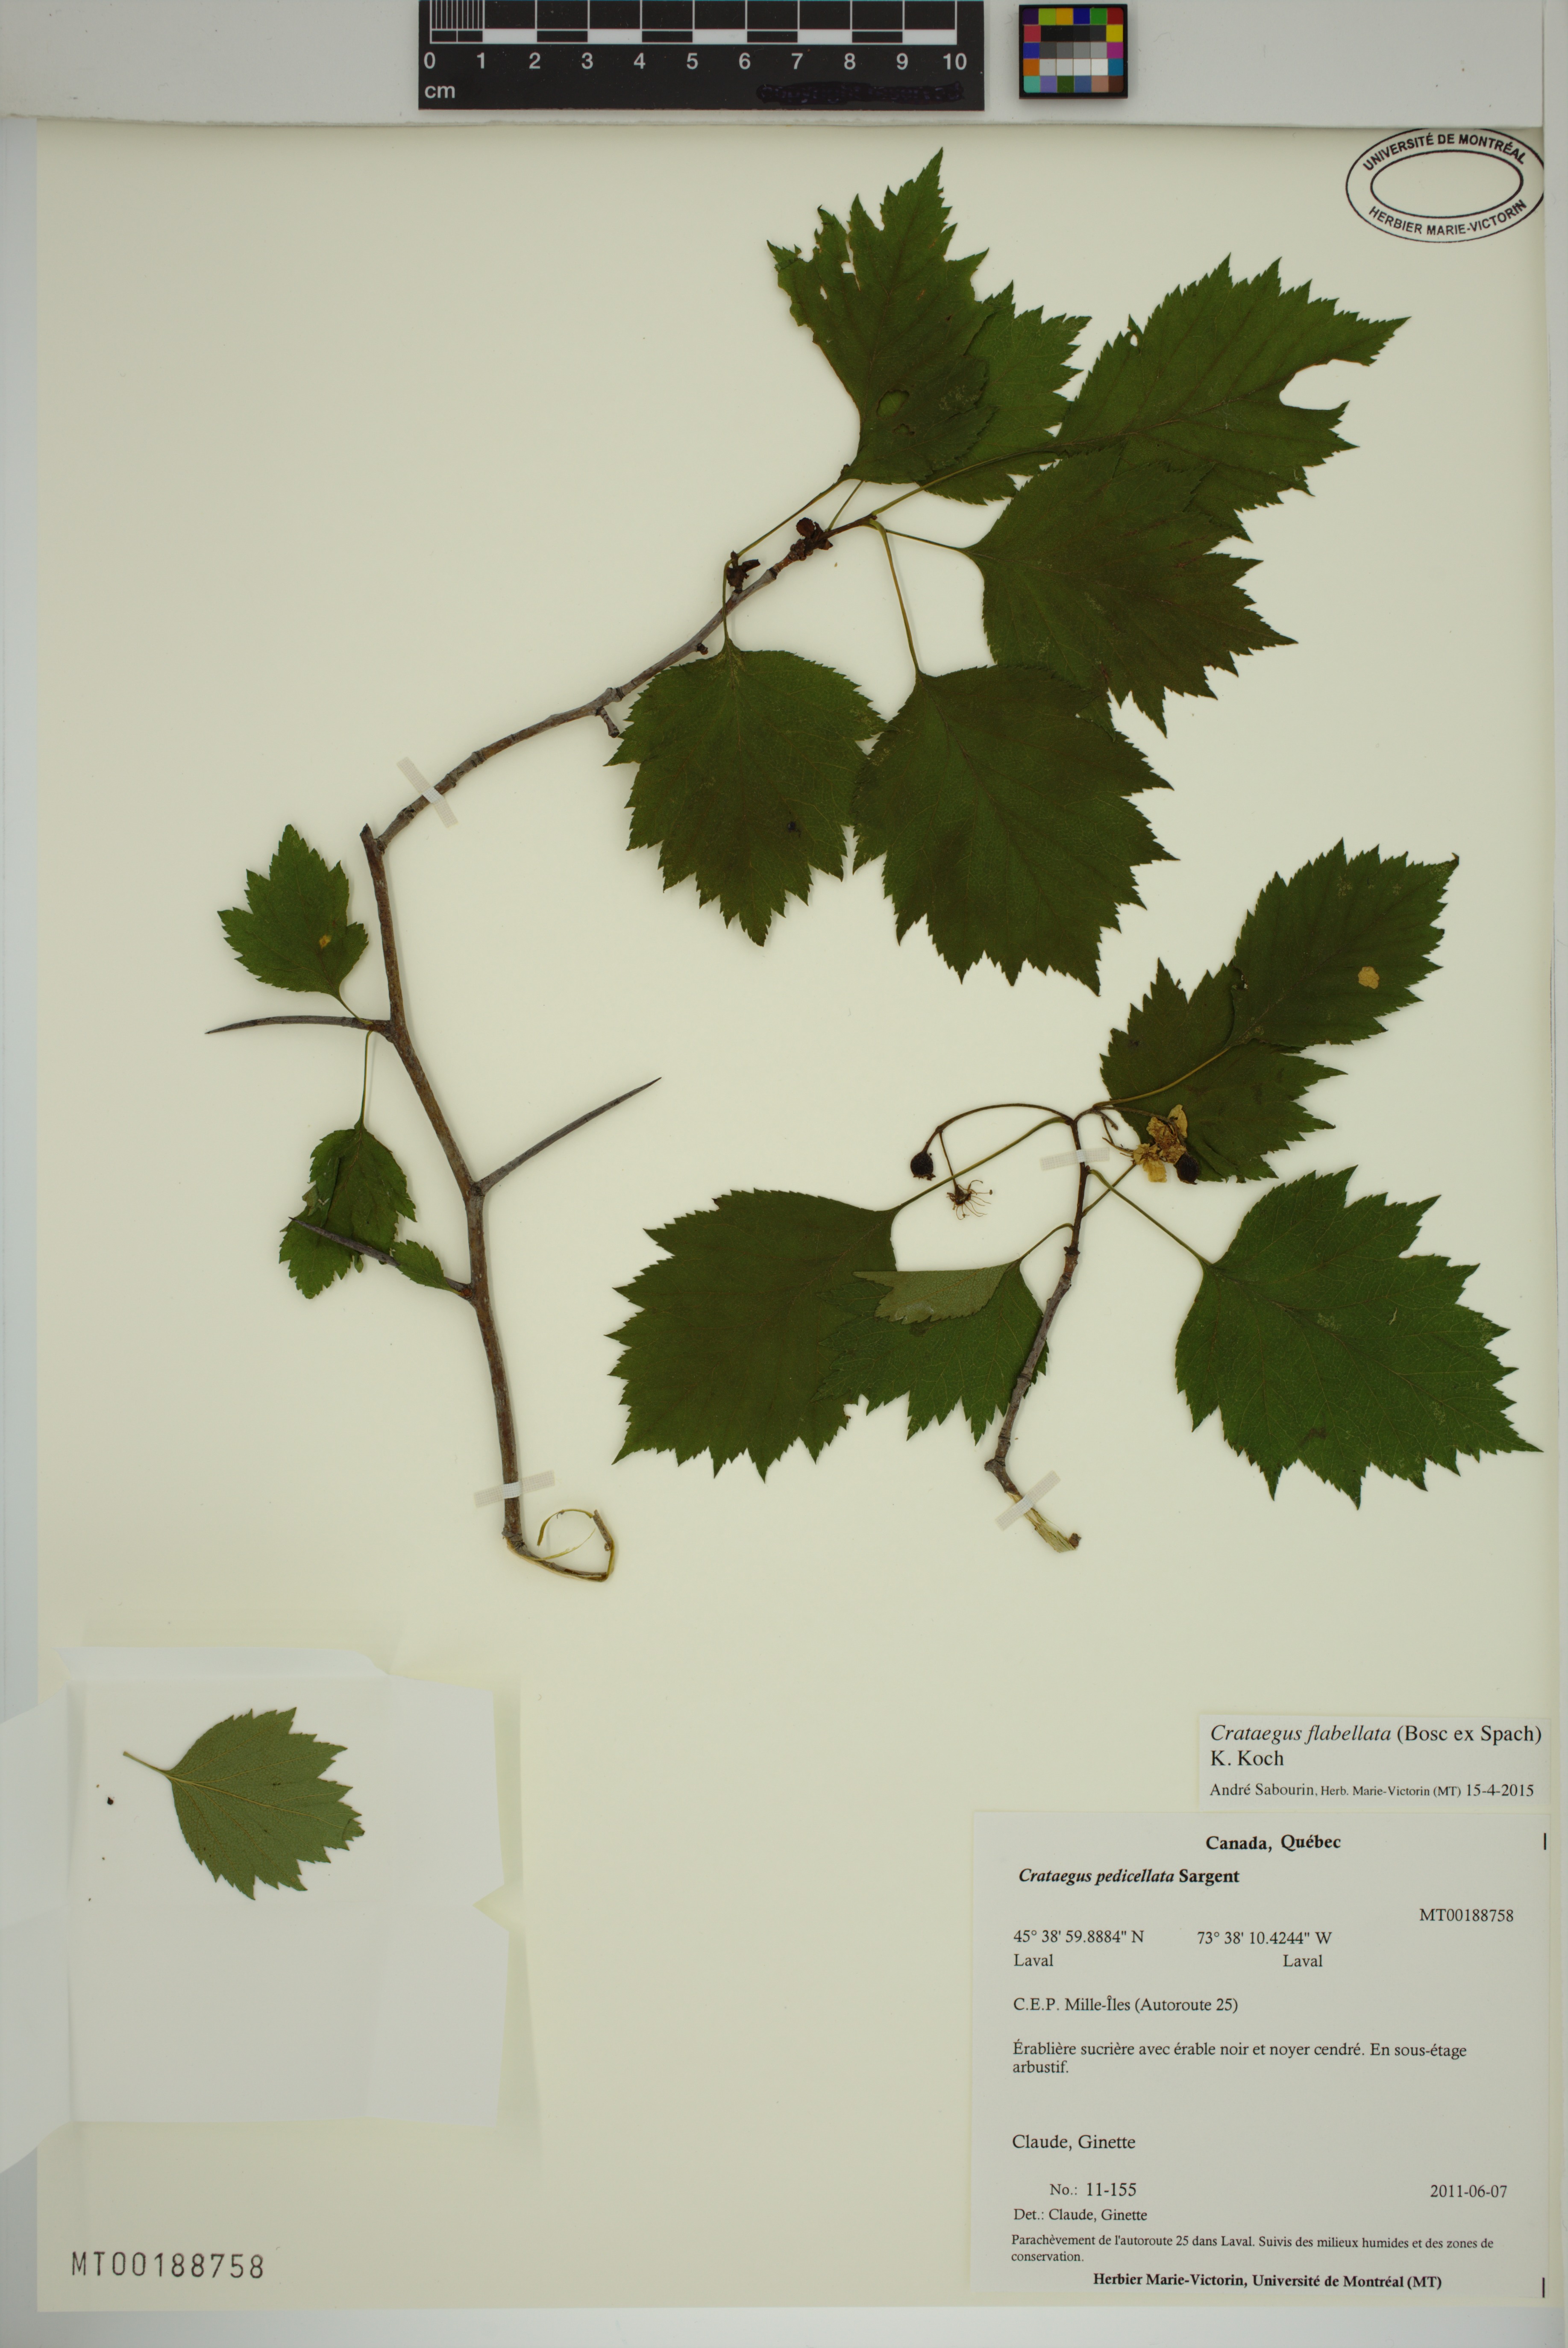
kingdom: Plantae
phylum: Tracheophyta
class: Magnoliopsida
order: Rosales
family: Rosaceae
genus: Crataegus
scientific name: Crataegus schuettei
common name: Schuette's hawthorn
